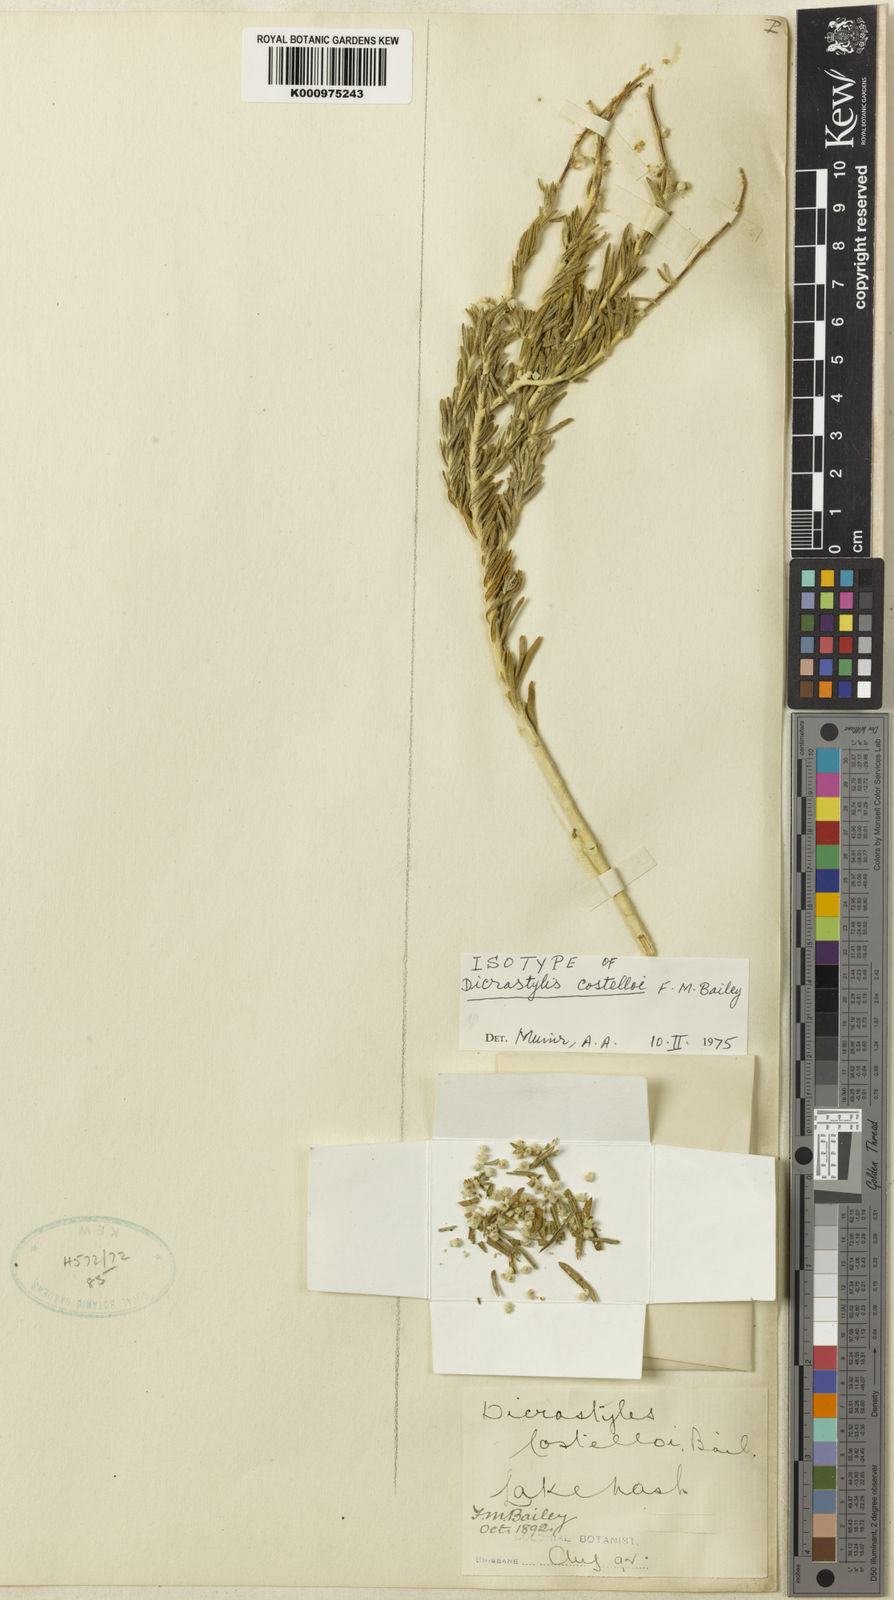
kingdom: Plantae
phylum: Tracheophyta
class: Magnoliopsida
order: Lamiales
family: Lamiaceae
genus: Dicrastylis
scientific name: Dicrastylis costelloi
